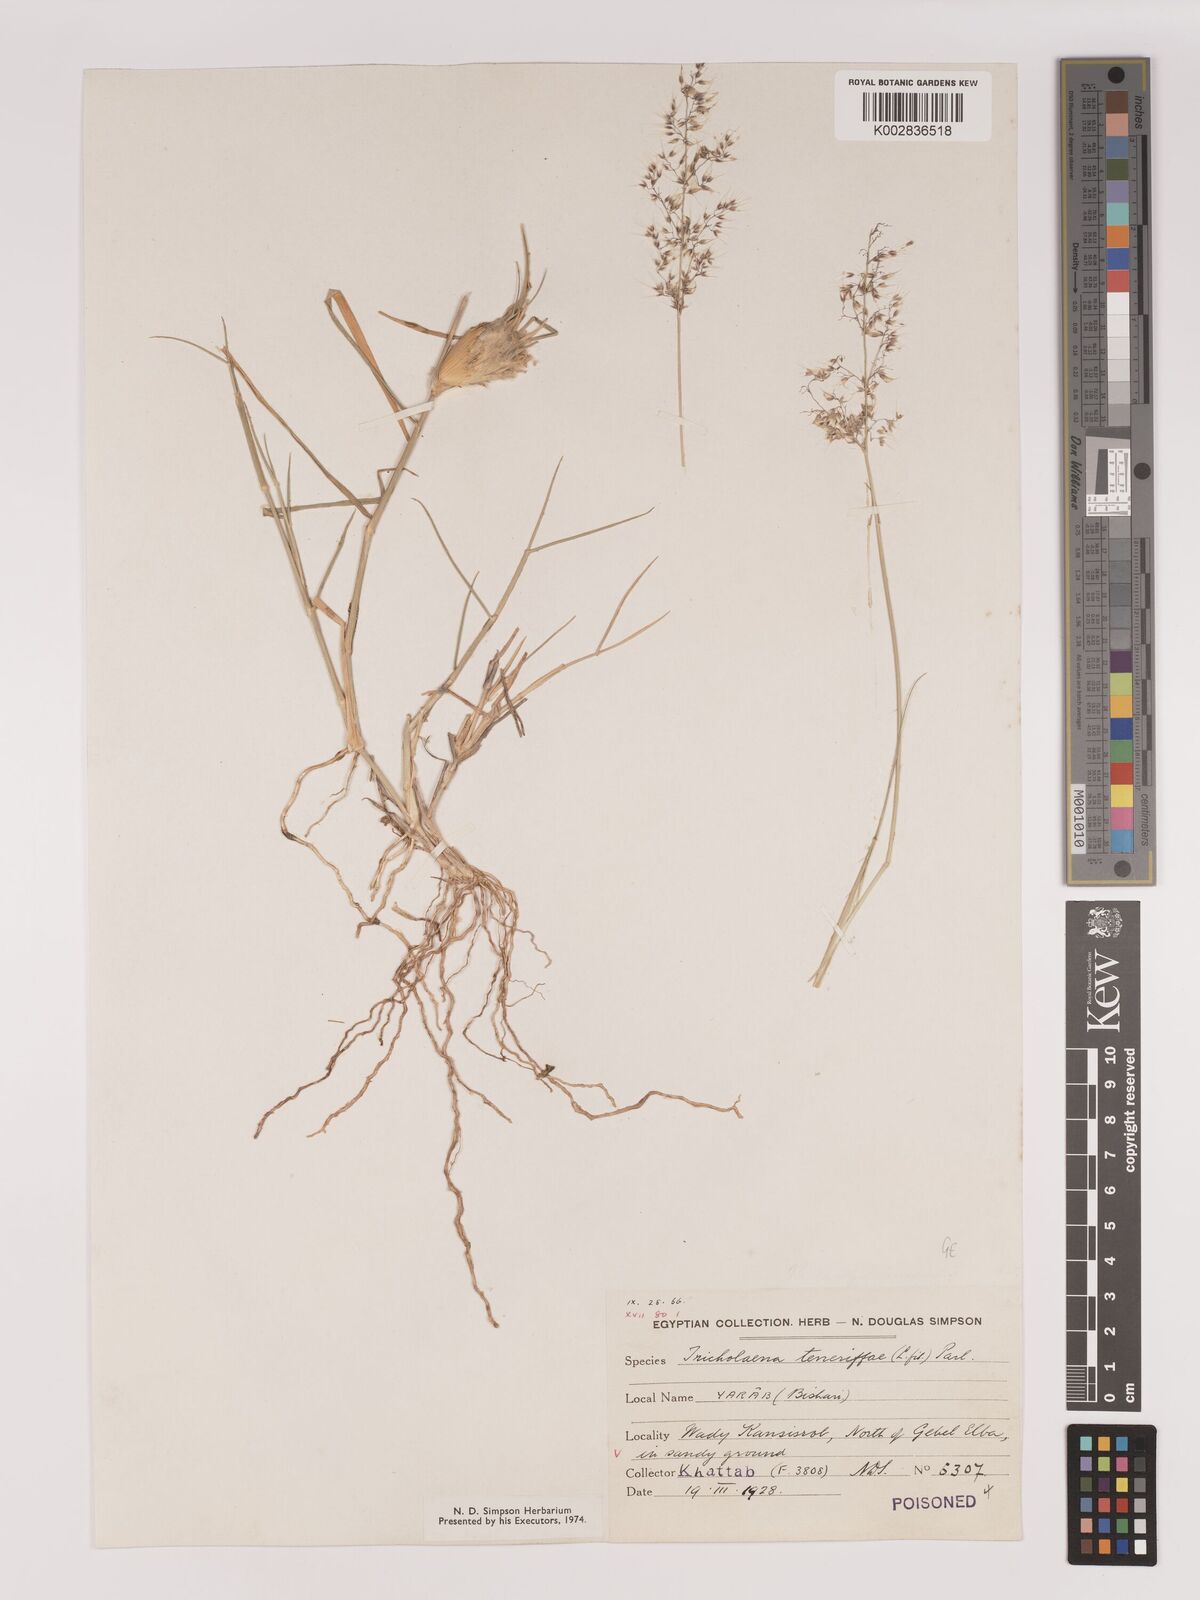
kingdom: Plantae
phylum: Tracheophyta
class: Liliopsida
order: Poales
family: Poaceae
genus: Tricholaena
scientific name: Tricholaena teneriffae
